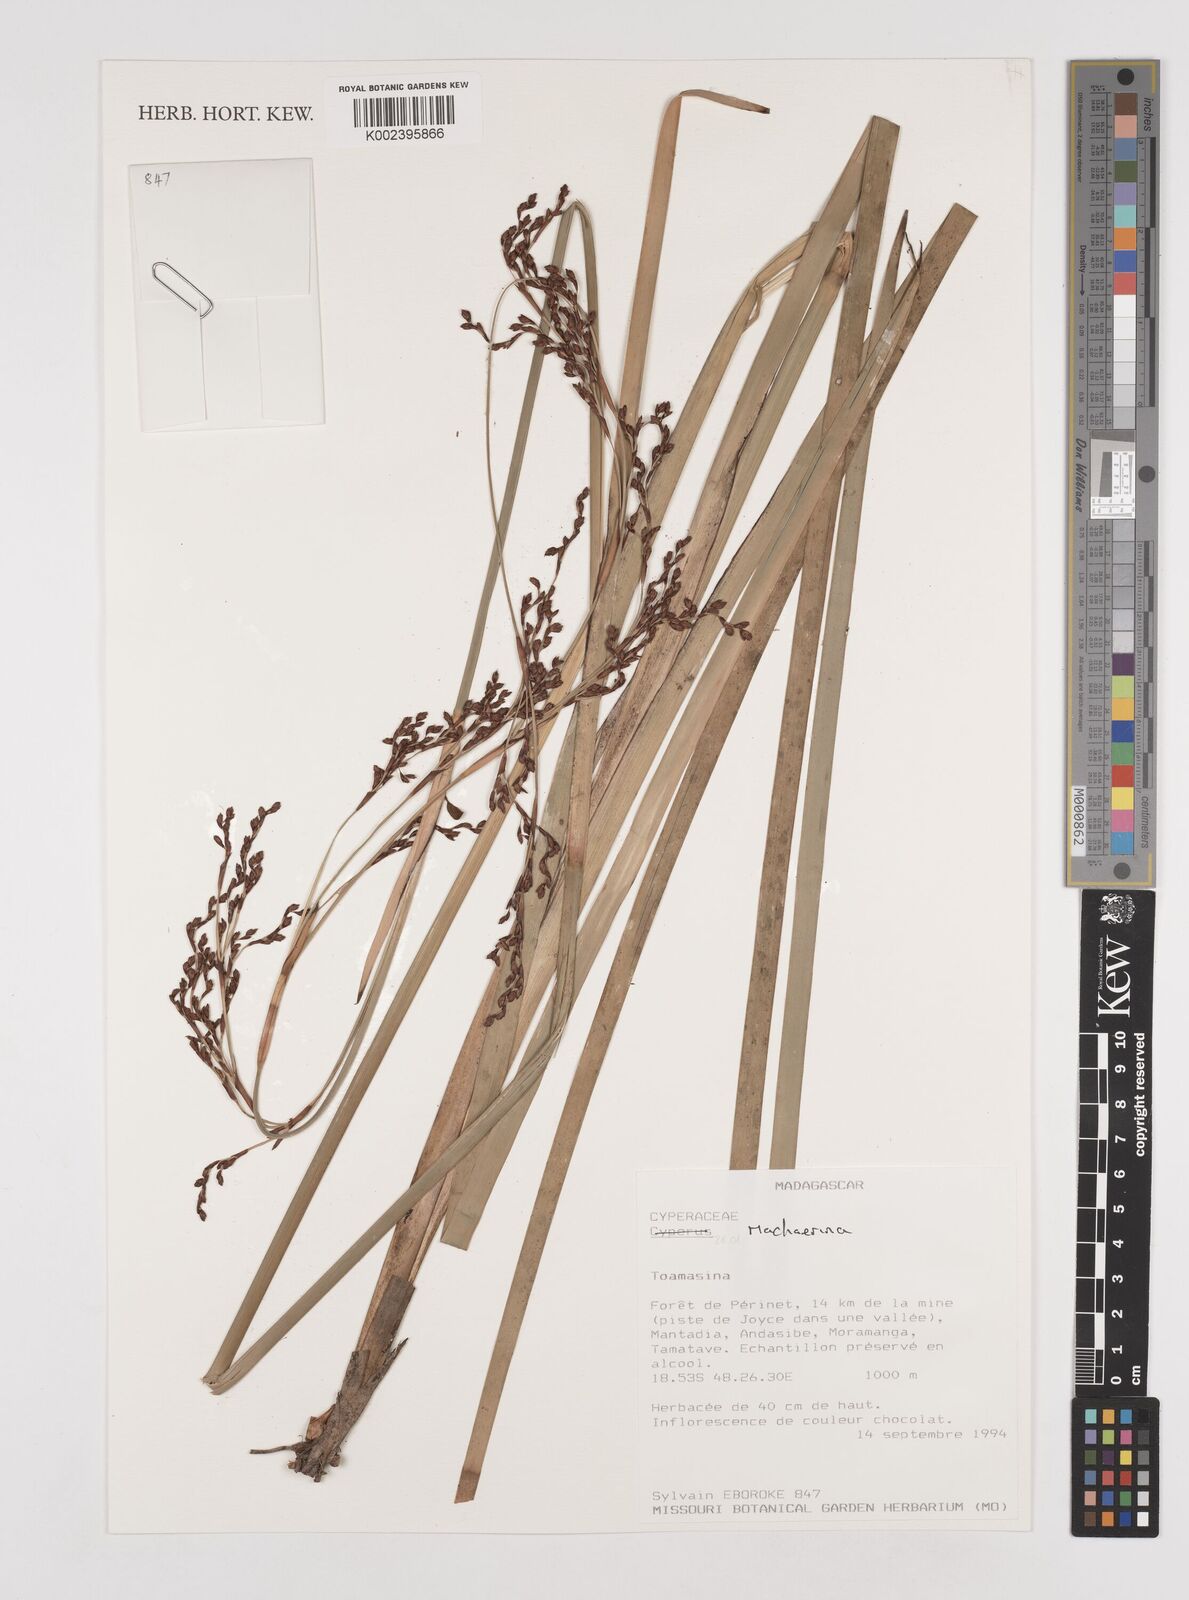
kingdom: Plantae
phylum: Tracheophyta
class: Liliopsida
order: Poales
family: Cyperaceae
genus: Machaerina
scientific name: Machaerina
